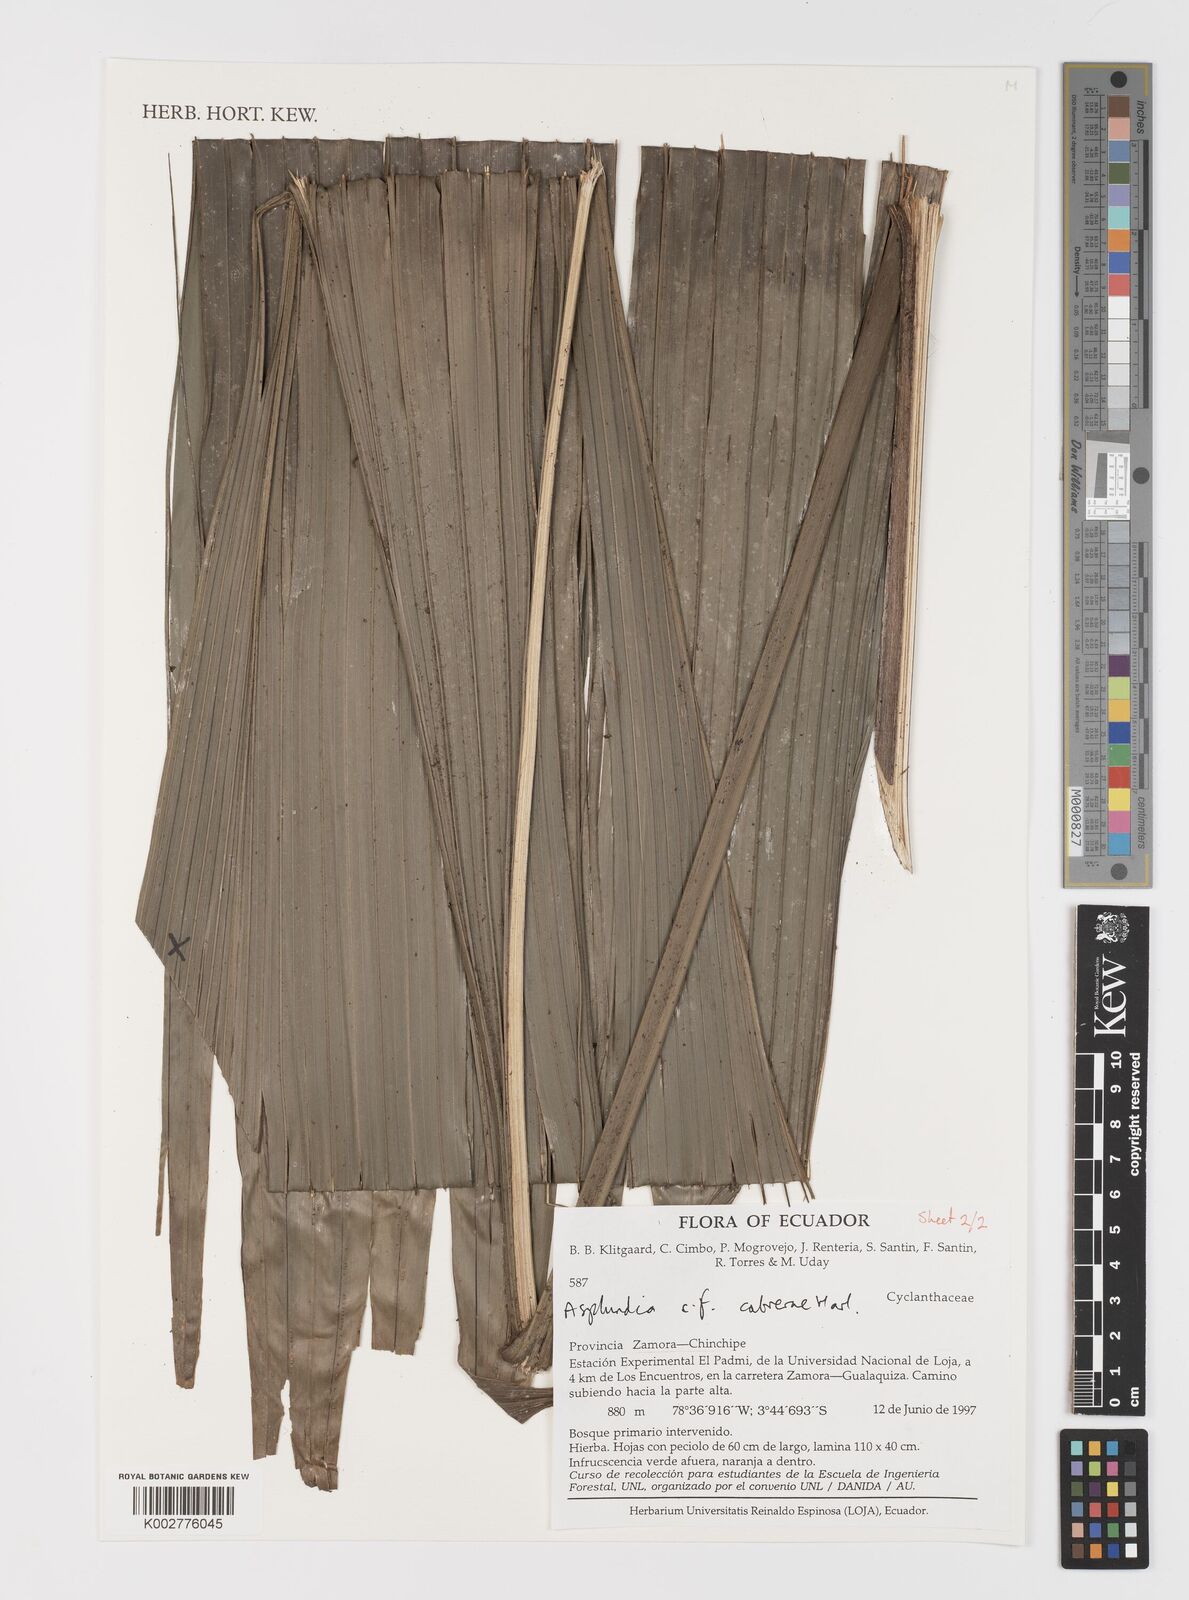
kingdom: Plantae
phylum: Tracheophyta
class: Liliopsida
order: Pandanales
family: Cyclanthaceae
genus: Asplundia
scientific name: Asplundia cabrerae
